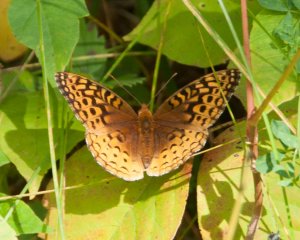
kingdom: Animalia
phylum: Arthropoda
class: Insecta
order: Lepidoptera
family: Nymphalidae
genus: Speyeria
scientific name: Speyeria cybele
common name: Great Spangled Fritillary
